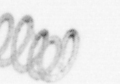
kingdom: Chromista
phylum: Ochrophyta
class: Bacillariophyceae
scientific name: Bacillariophyceae
